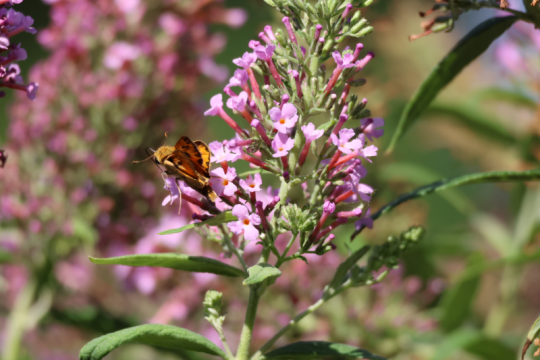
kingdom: Animalia
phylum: Arthropoda
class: Insecta
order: Lepidoptera
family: Hesperiidae
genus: Hylephila
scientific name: Hylephila phyleus
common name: Fiery Skipper
